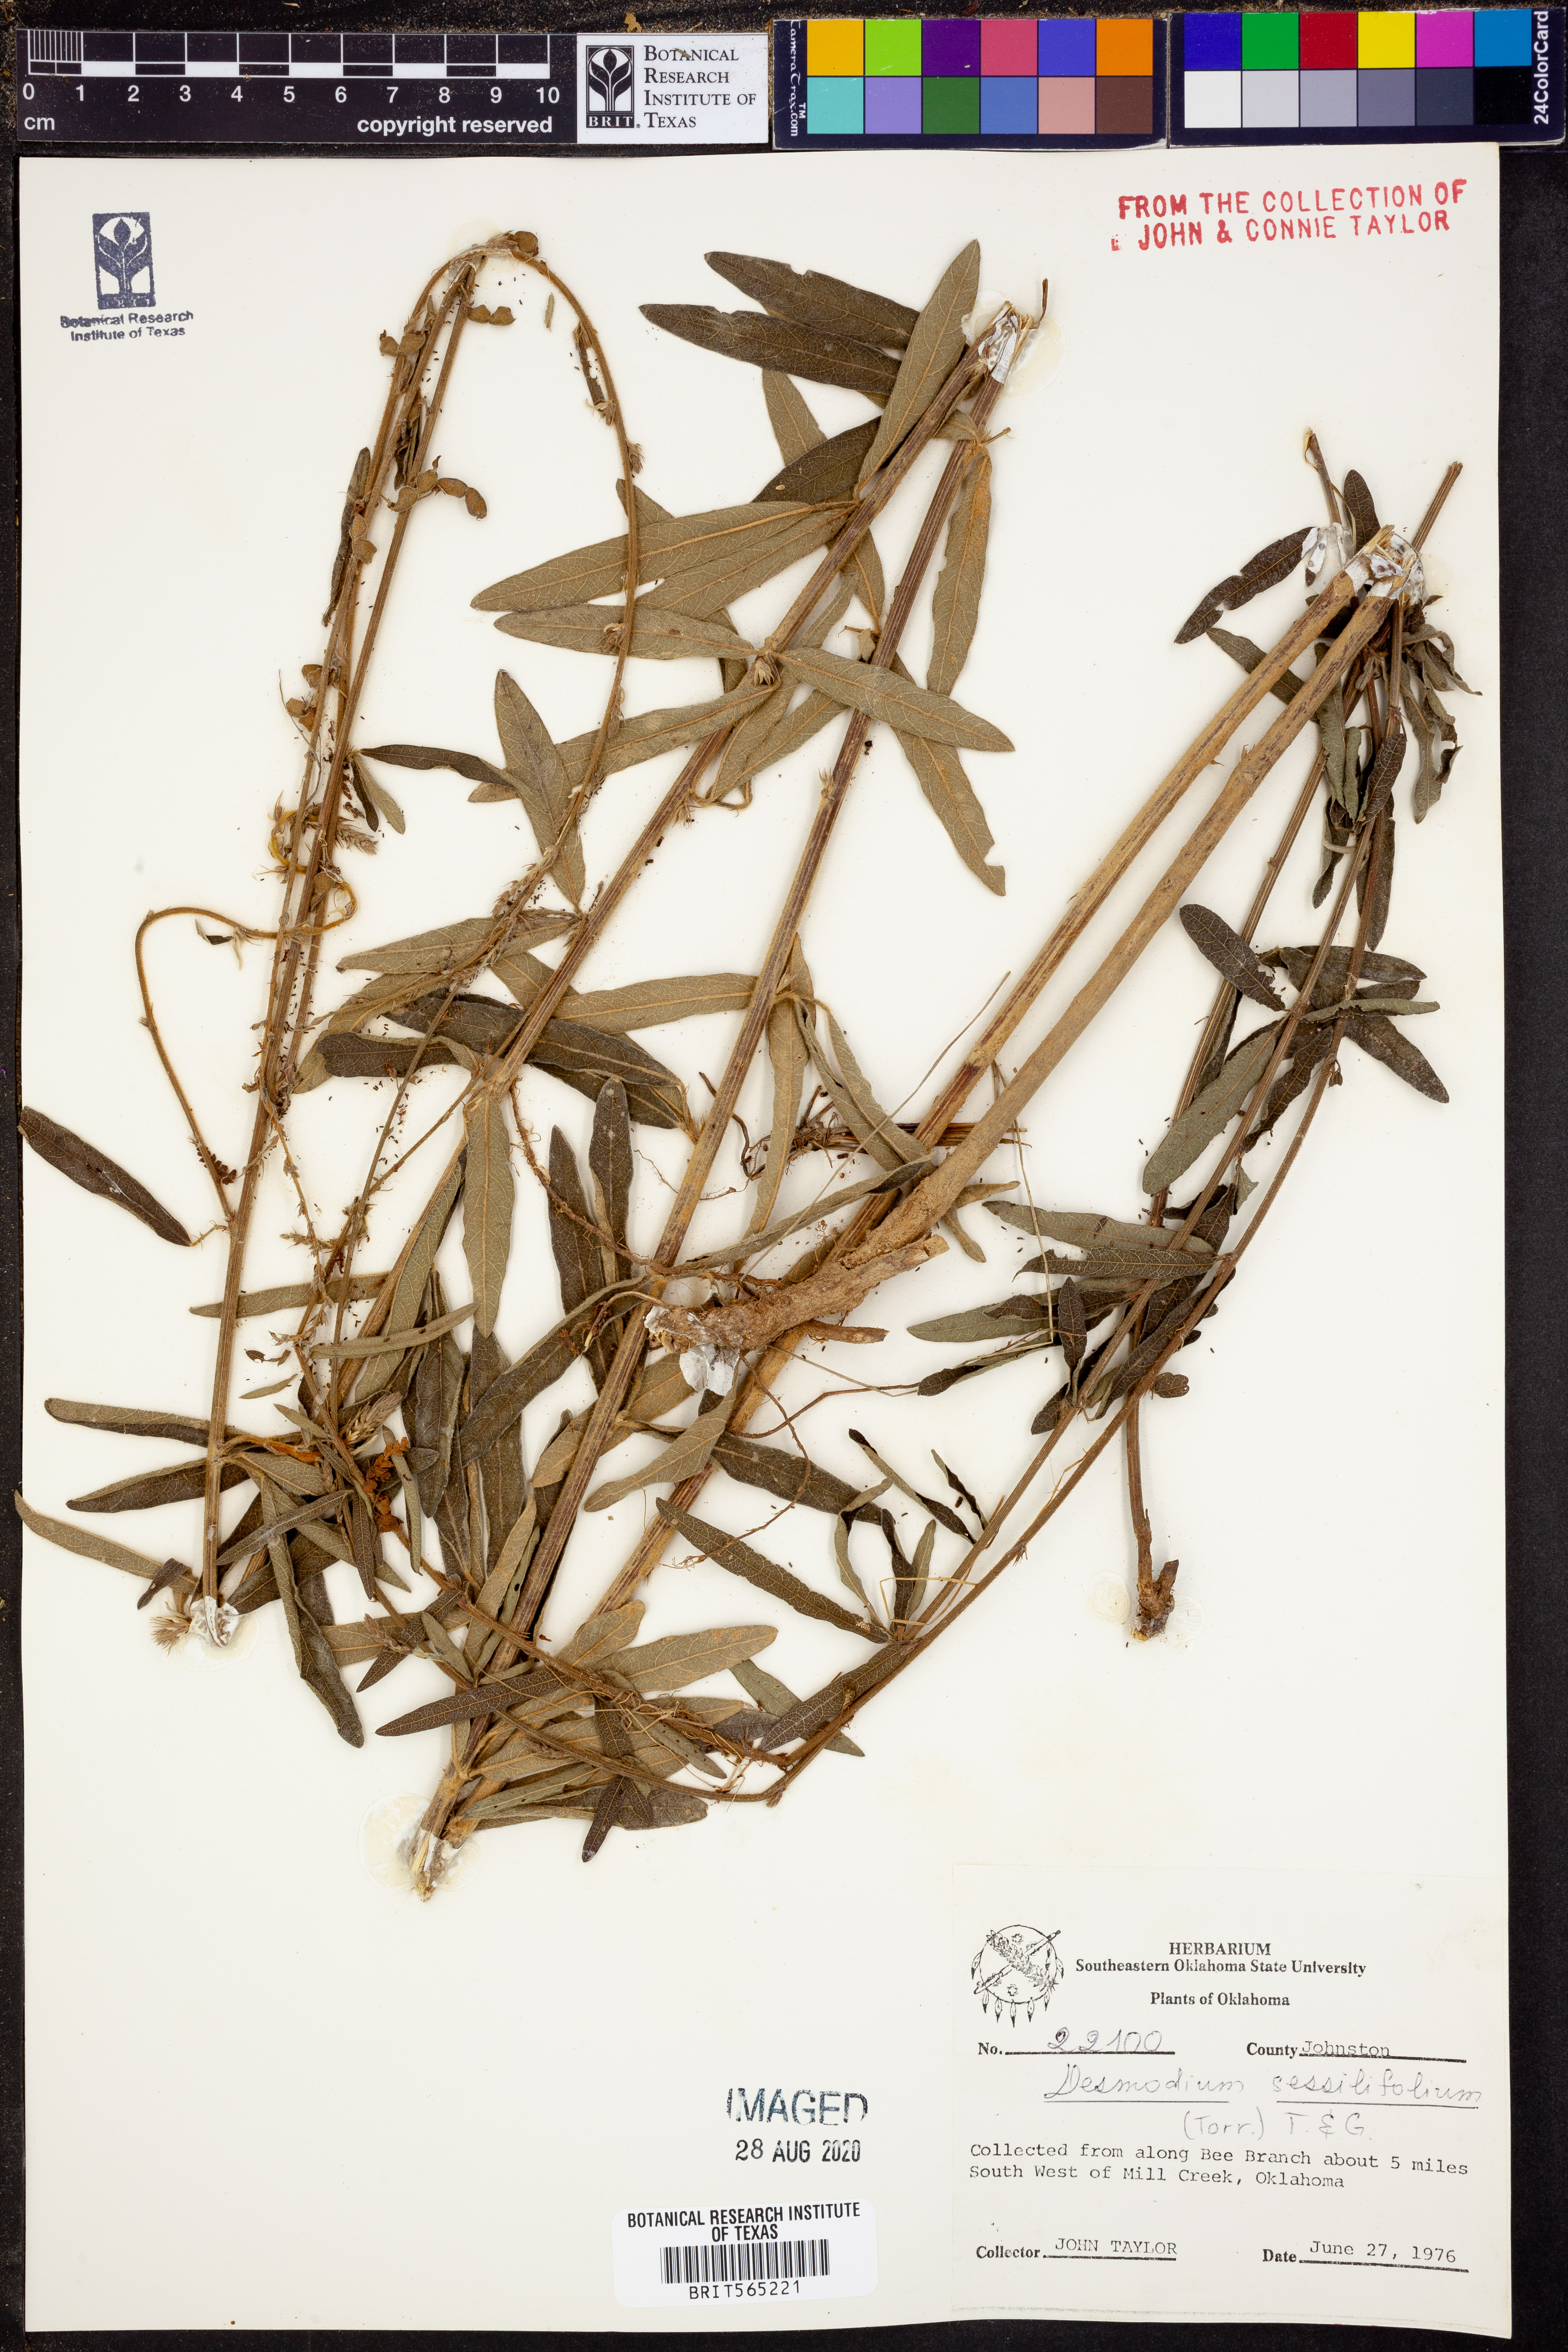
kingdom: Plantae
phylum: Tracheophyta
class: Magnoliopsida
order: Fabales
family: Fabaceae
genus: Desmodium
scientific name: Desmodium sessilifolium
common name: Sessile tick-clover
